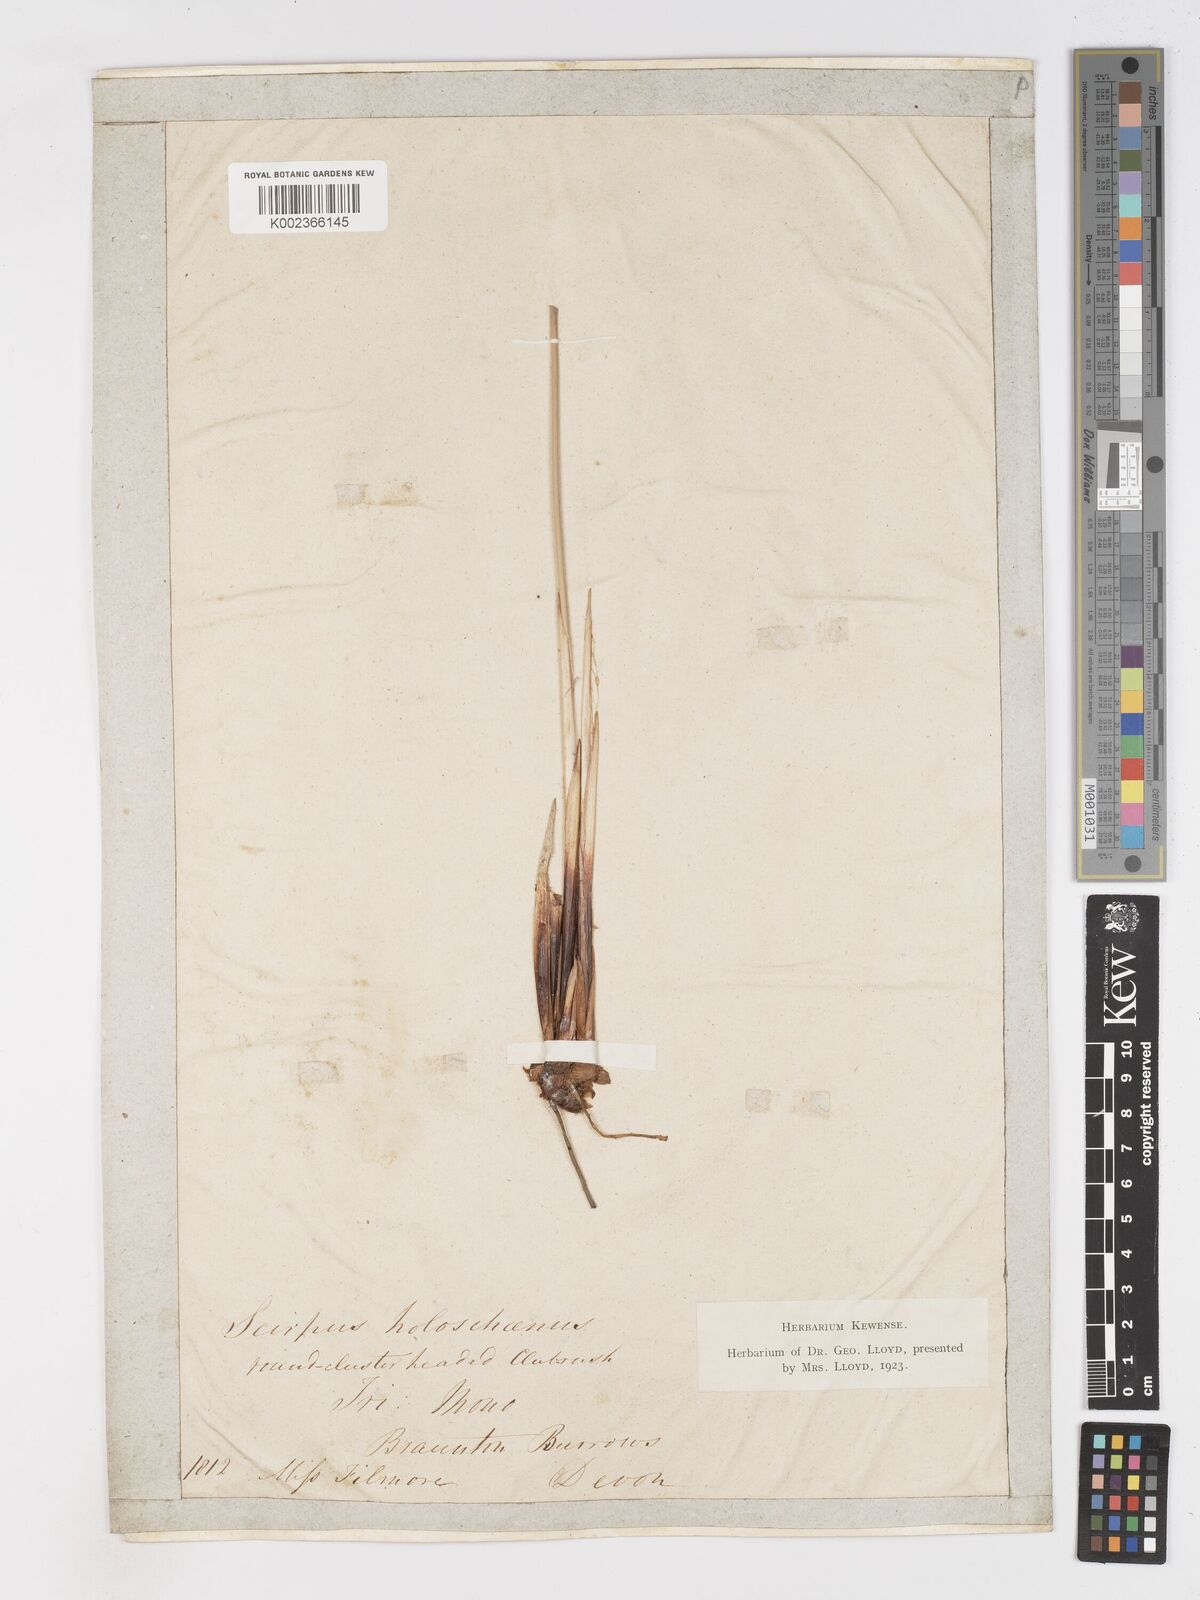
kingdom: Plantae
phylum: Tracheophyta
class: Liliopsida
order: Poales
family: Cyperaceae
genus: Scirpoides
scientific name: Scirpoides holoschoenus
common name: Round-headed club-rush
